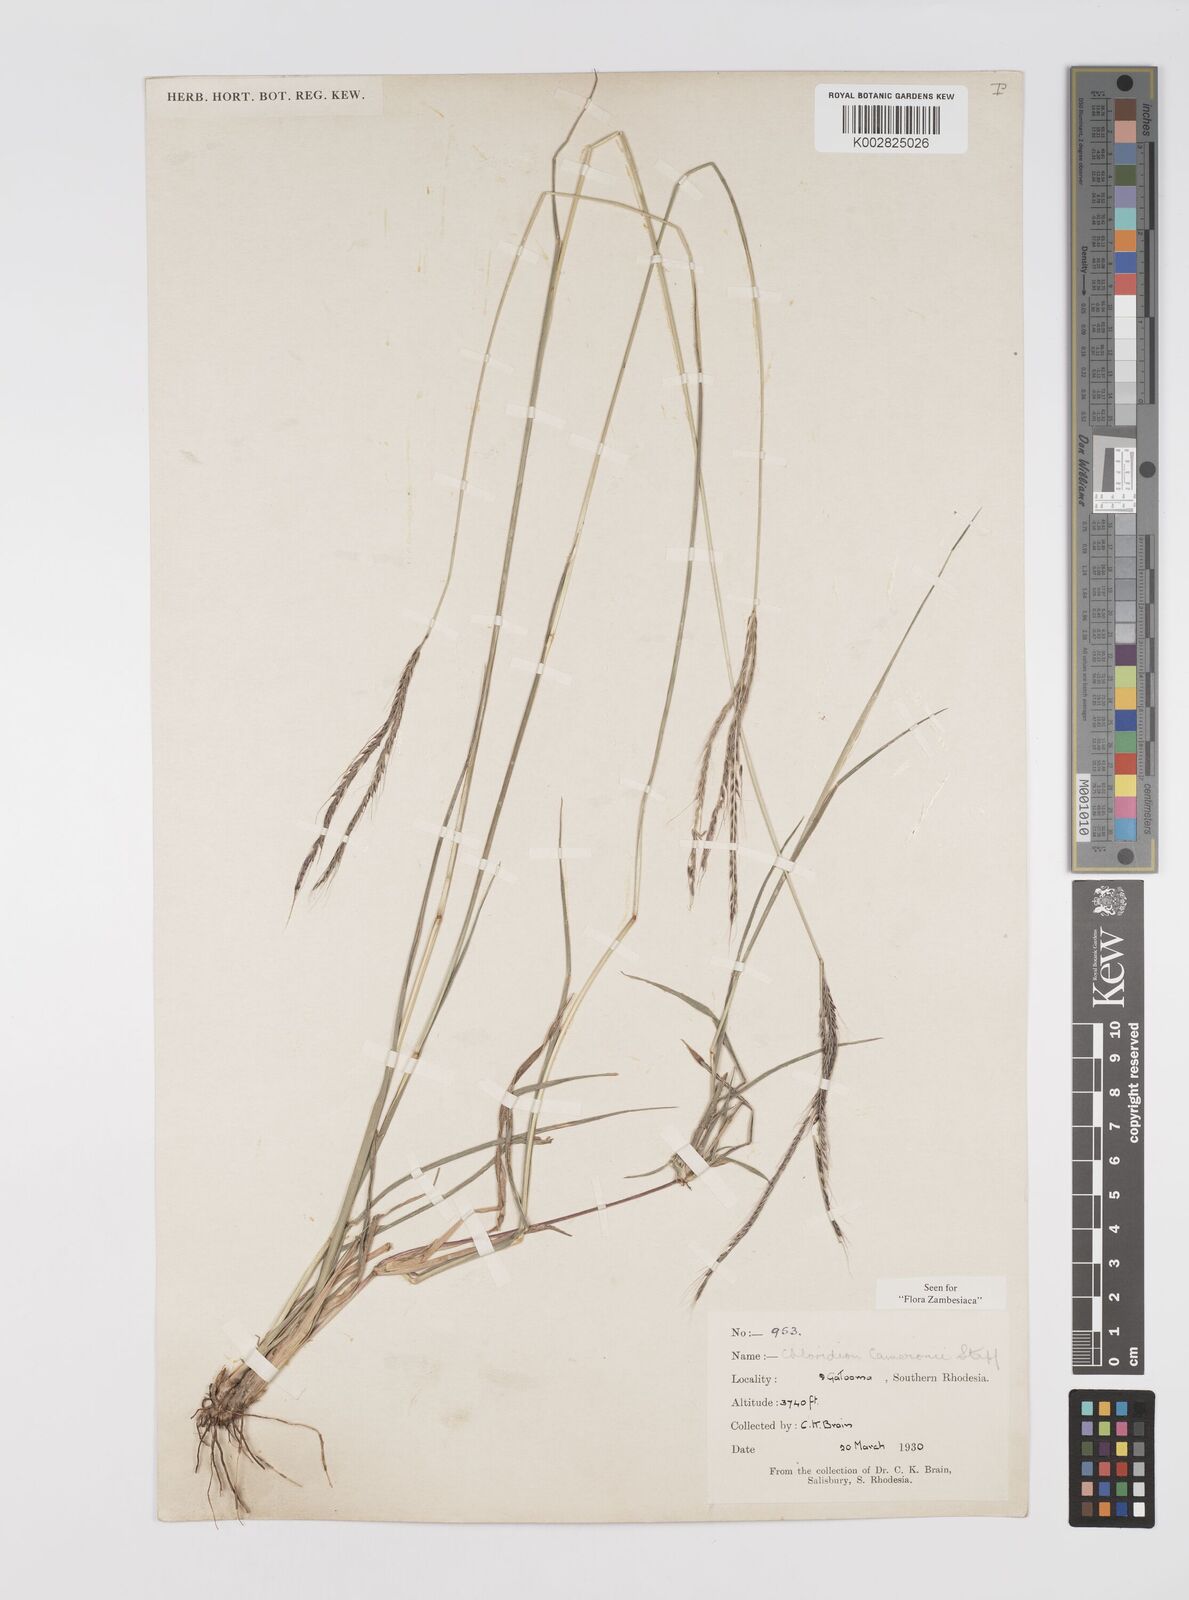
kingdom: Plantae
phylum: Tracheophyta
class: Liliopsida
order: Poales
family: Poaceae
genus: Stereochlaena
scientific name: Stereochlaena cameronii
